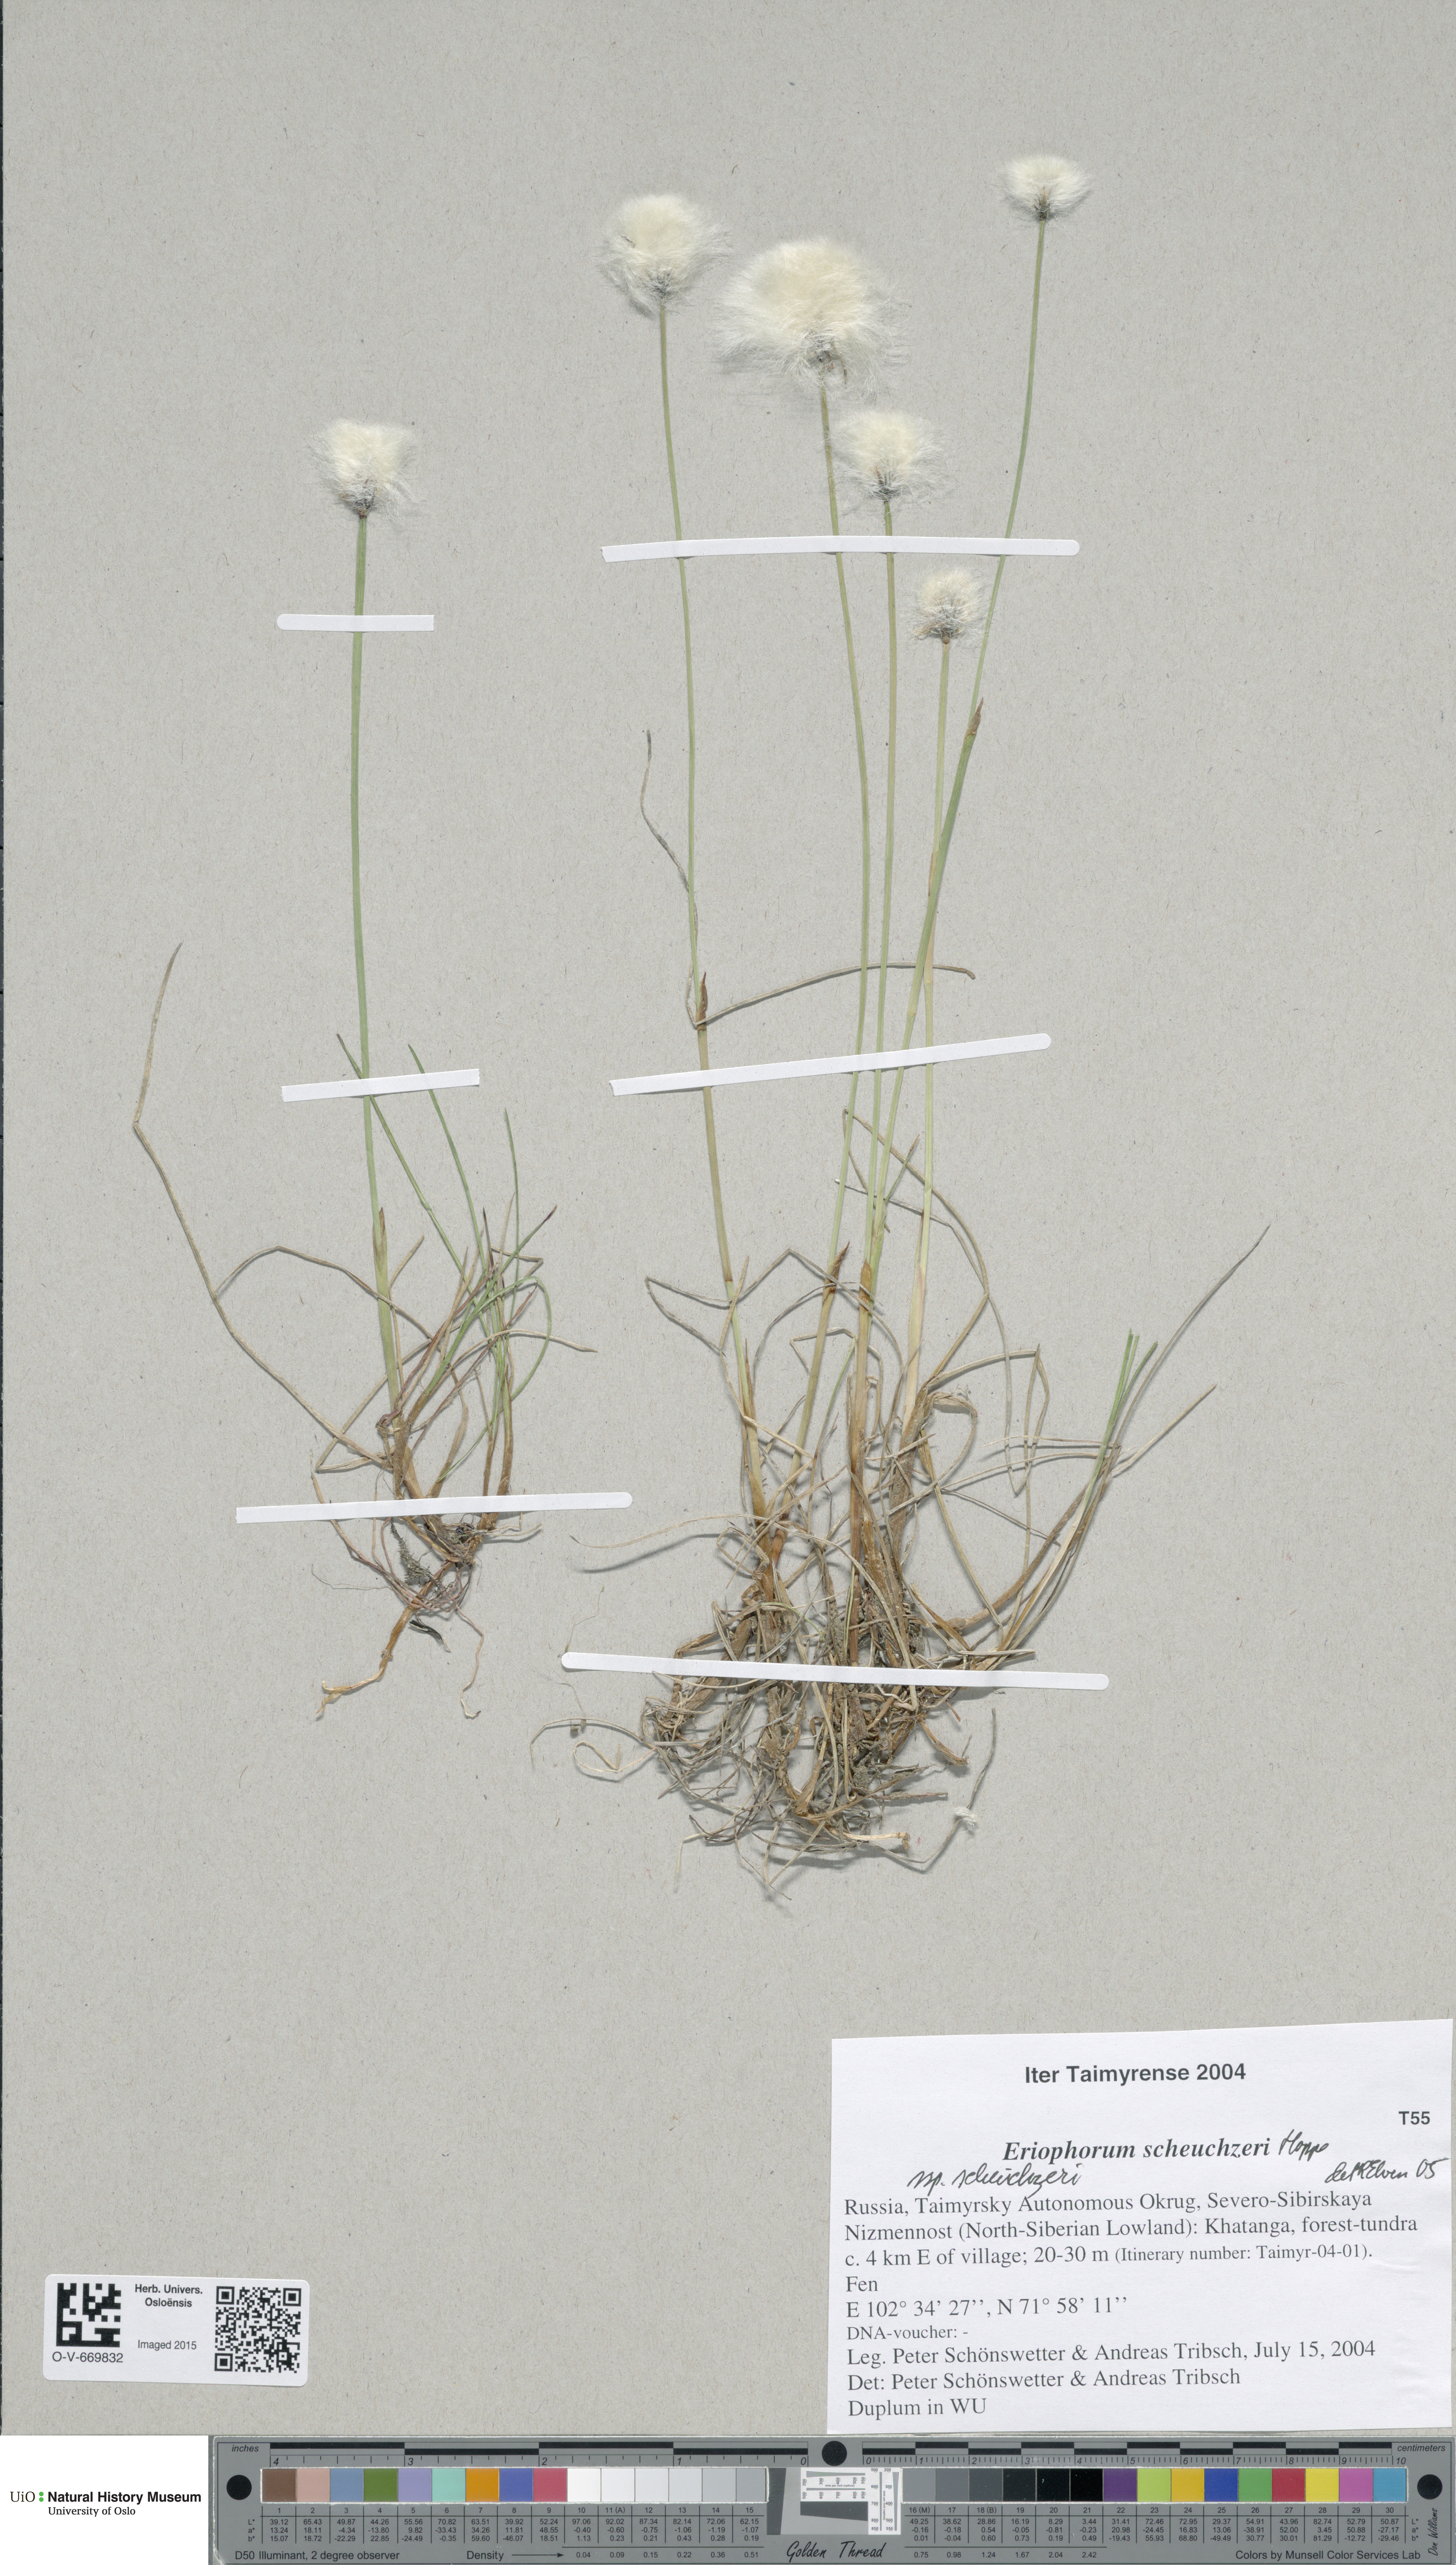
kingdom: Plantae
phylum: Tracheophyta
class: Liliopsida
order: Poales
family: Cyperaceae
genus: Eriophorum
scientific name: Eriophorum scheuchzeri
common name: Scheuchzer's cottongrass
